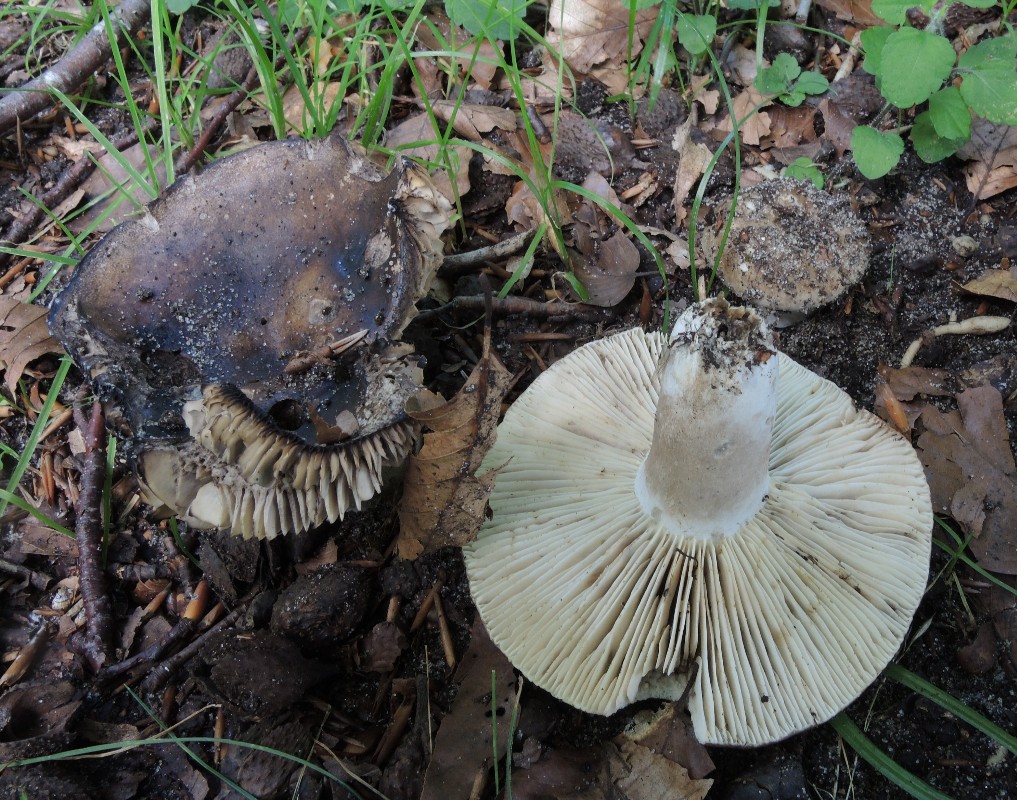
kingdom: Fungi
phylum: Basidiomycota
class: Agaricomycetes
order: Russulales
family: Russulaceae
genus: Russula
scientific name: Russula
